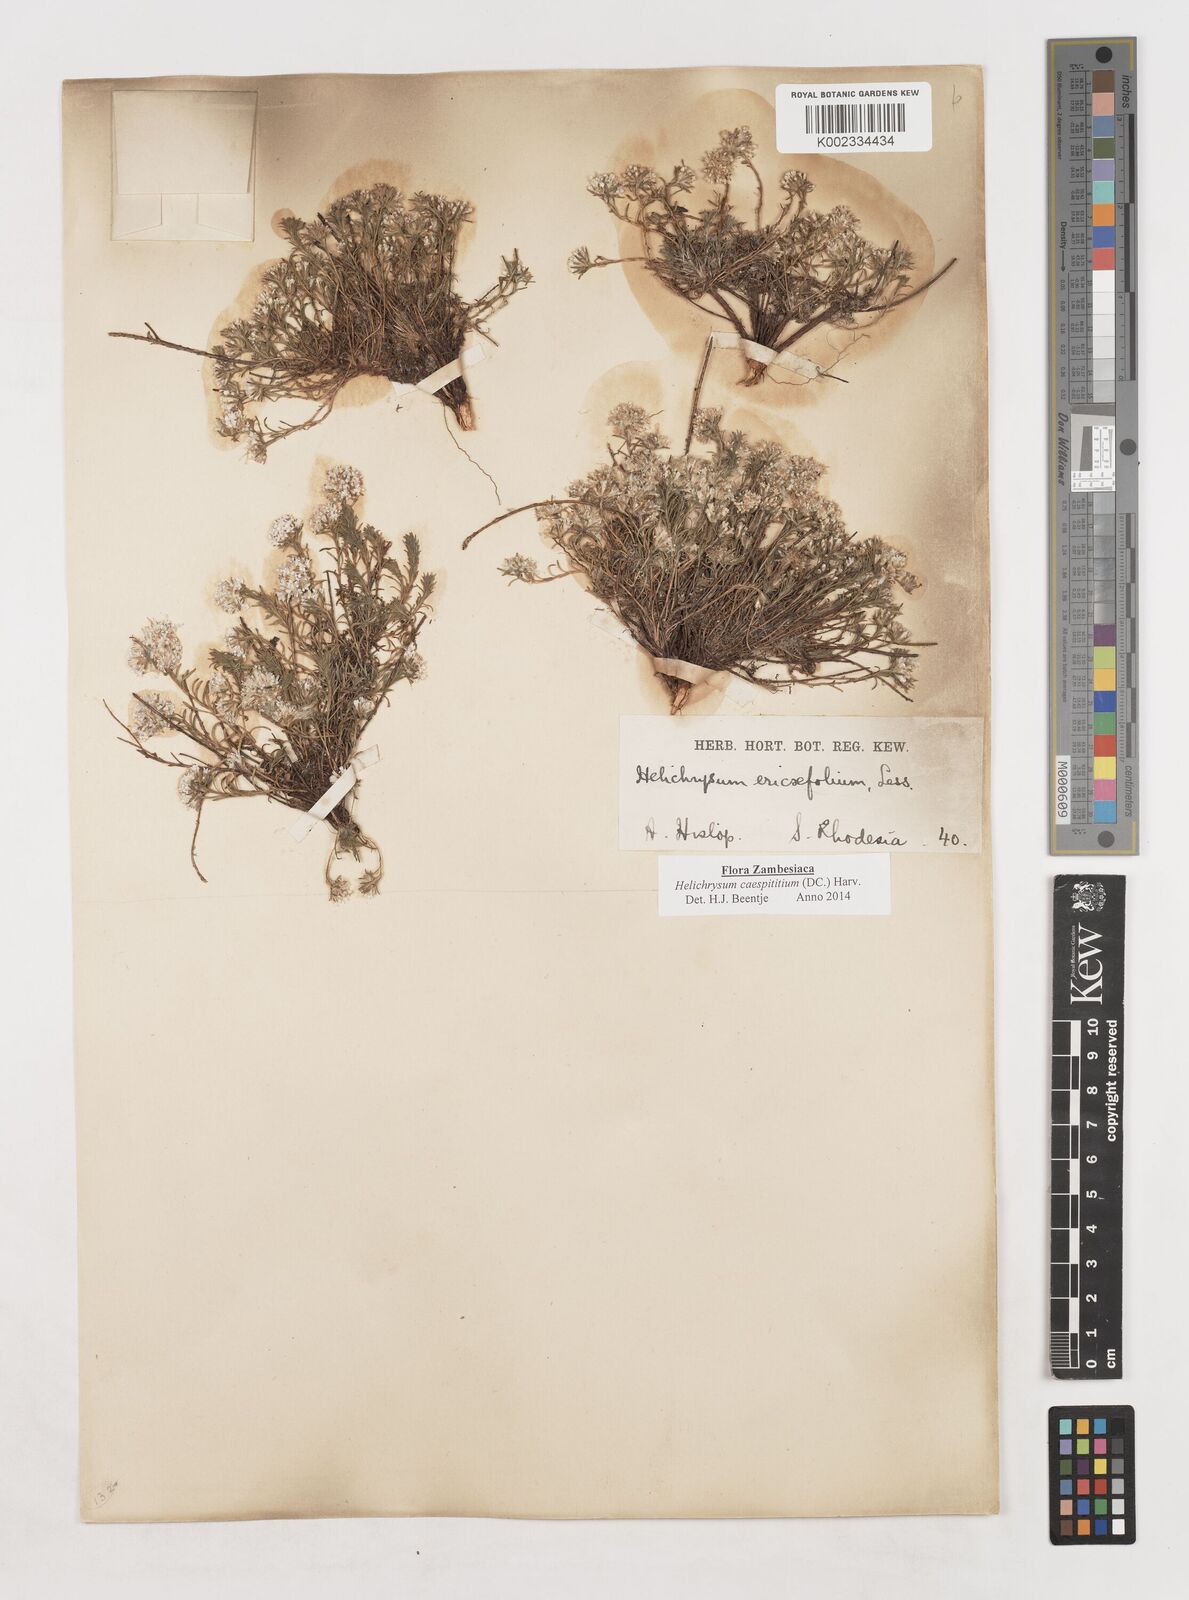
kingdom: Plantae
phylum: Tracheophyta
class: Magnoliopsida
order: Asterales
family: Asteraceae
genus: Helichrysum
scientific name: Helichrysum caespititium
